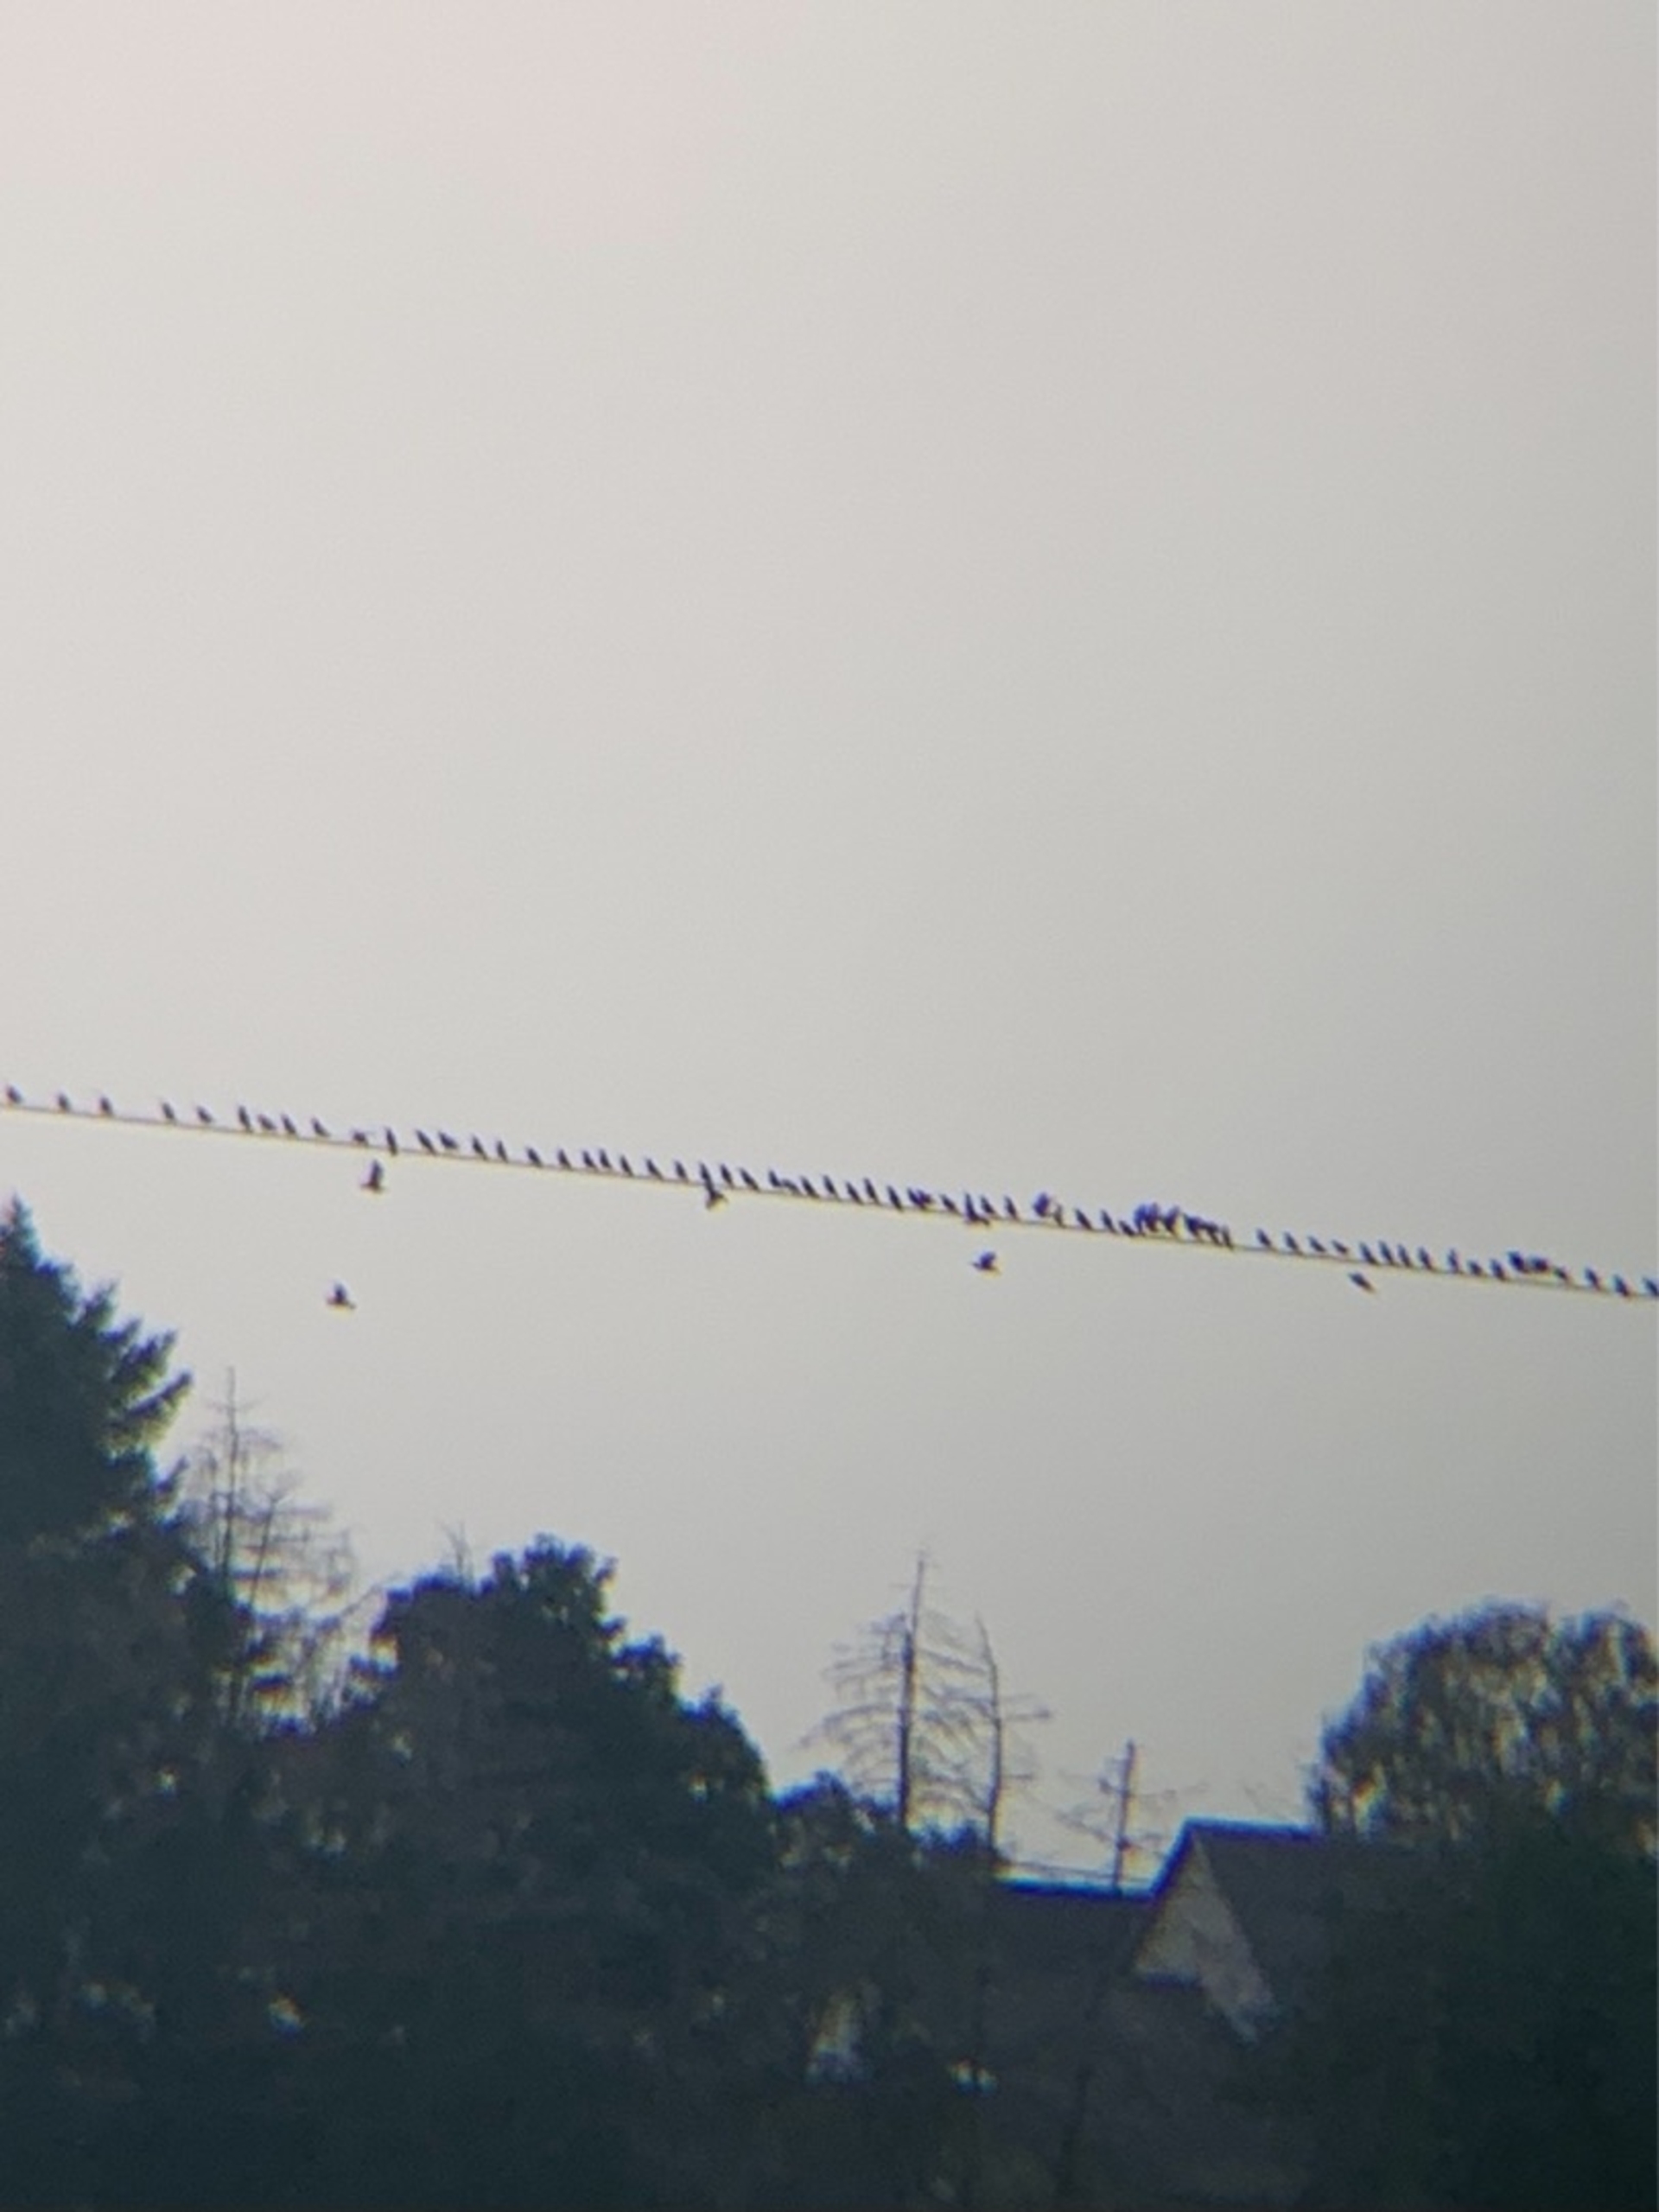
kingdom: Animalia
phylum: Chordata
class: Aves
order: Passeriformes
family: Sturnidae
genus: Sturnus
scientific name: Sturnus vulgaris
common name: Stær
